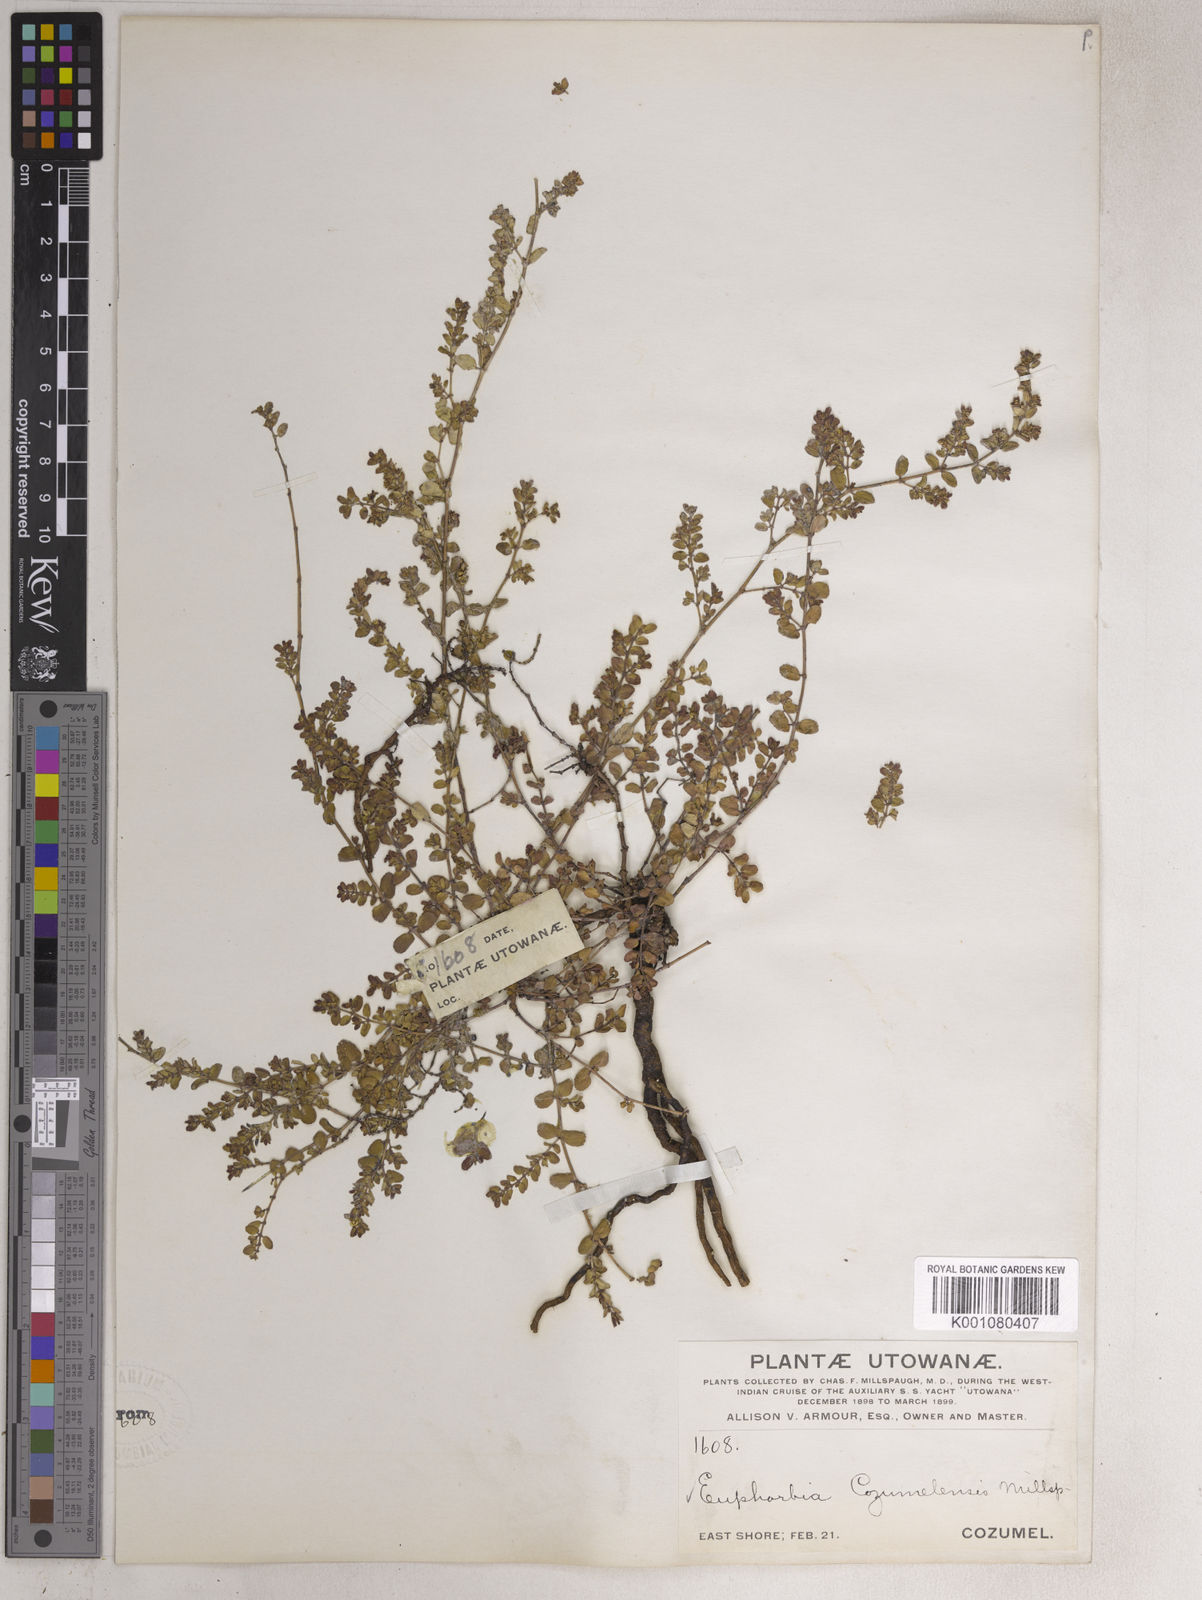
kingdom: Plantae
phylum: Tracheophyta
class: Magnoliopsida
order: Malpighiales
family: Euphorbiaceae
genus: Euphorbia
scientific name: Euphorbia cozumelensis
